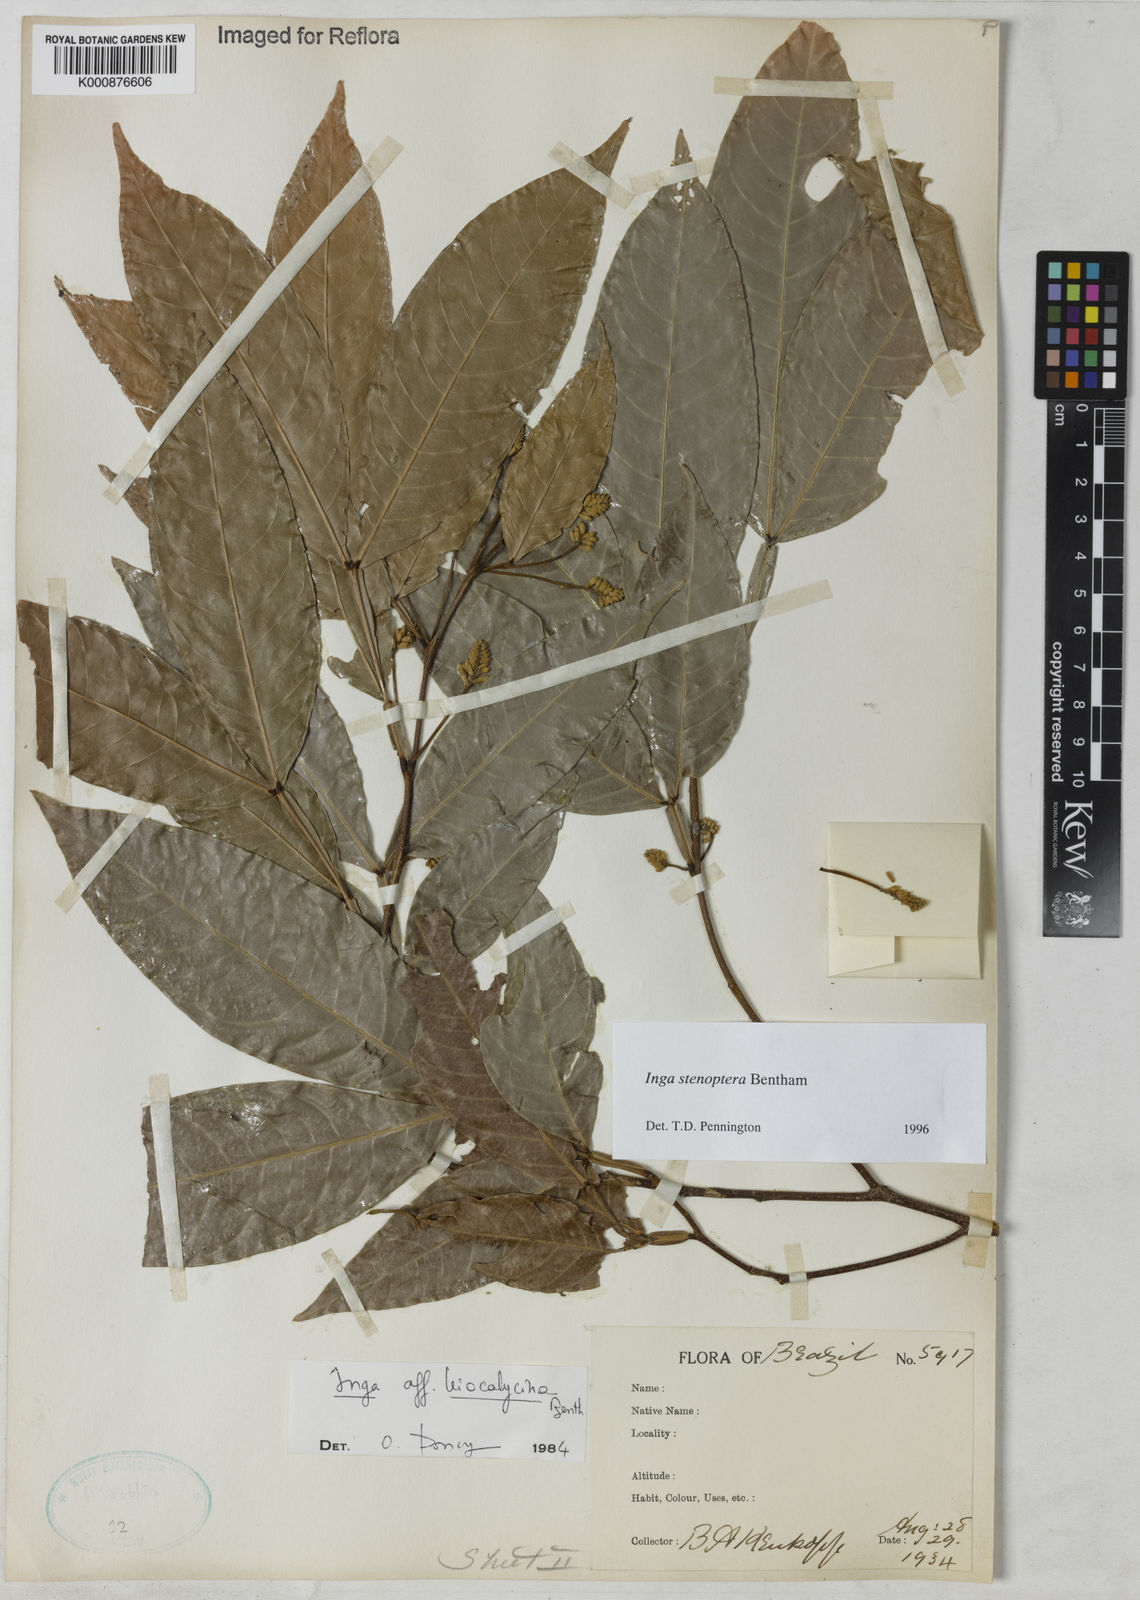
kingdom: Plantae
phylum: Tracheophyta
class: Magnoliopsida
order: Fabales
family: Fabaceae
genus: Inga
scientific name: Inga stenoptera
